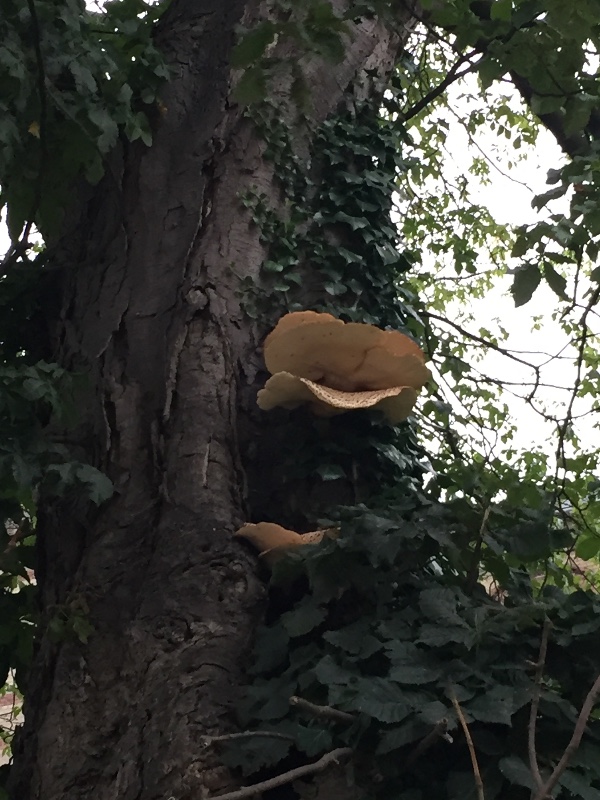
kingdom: Fungi
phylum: Basidiomycota
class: Agaricomycetes
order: Polyporales
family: Polyporaceae
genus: Cerioporus
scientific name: Cerioporus squamosus
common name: skællet stilkporesvamp
